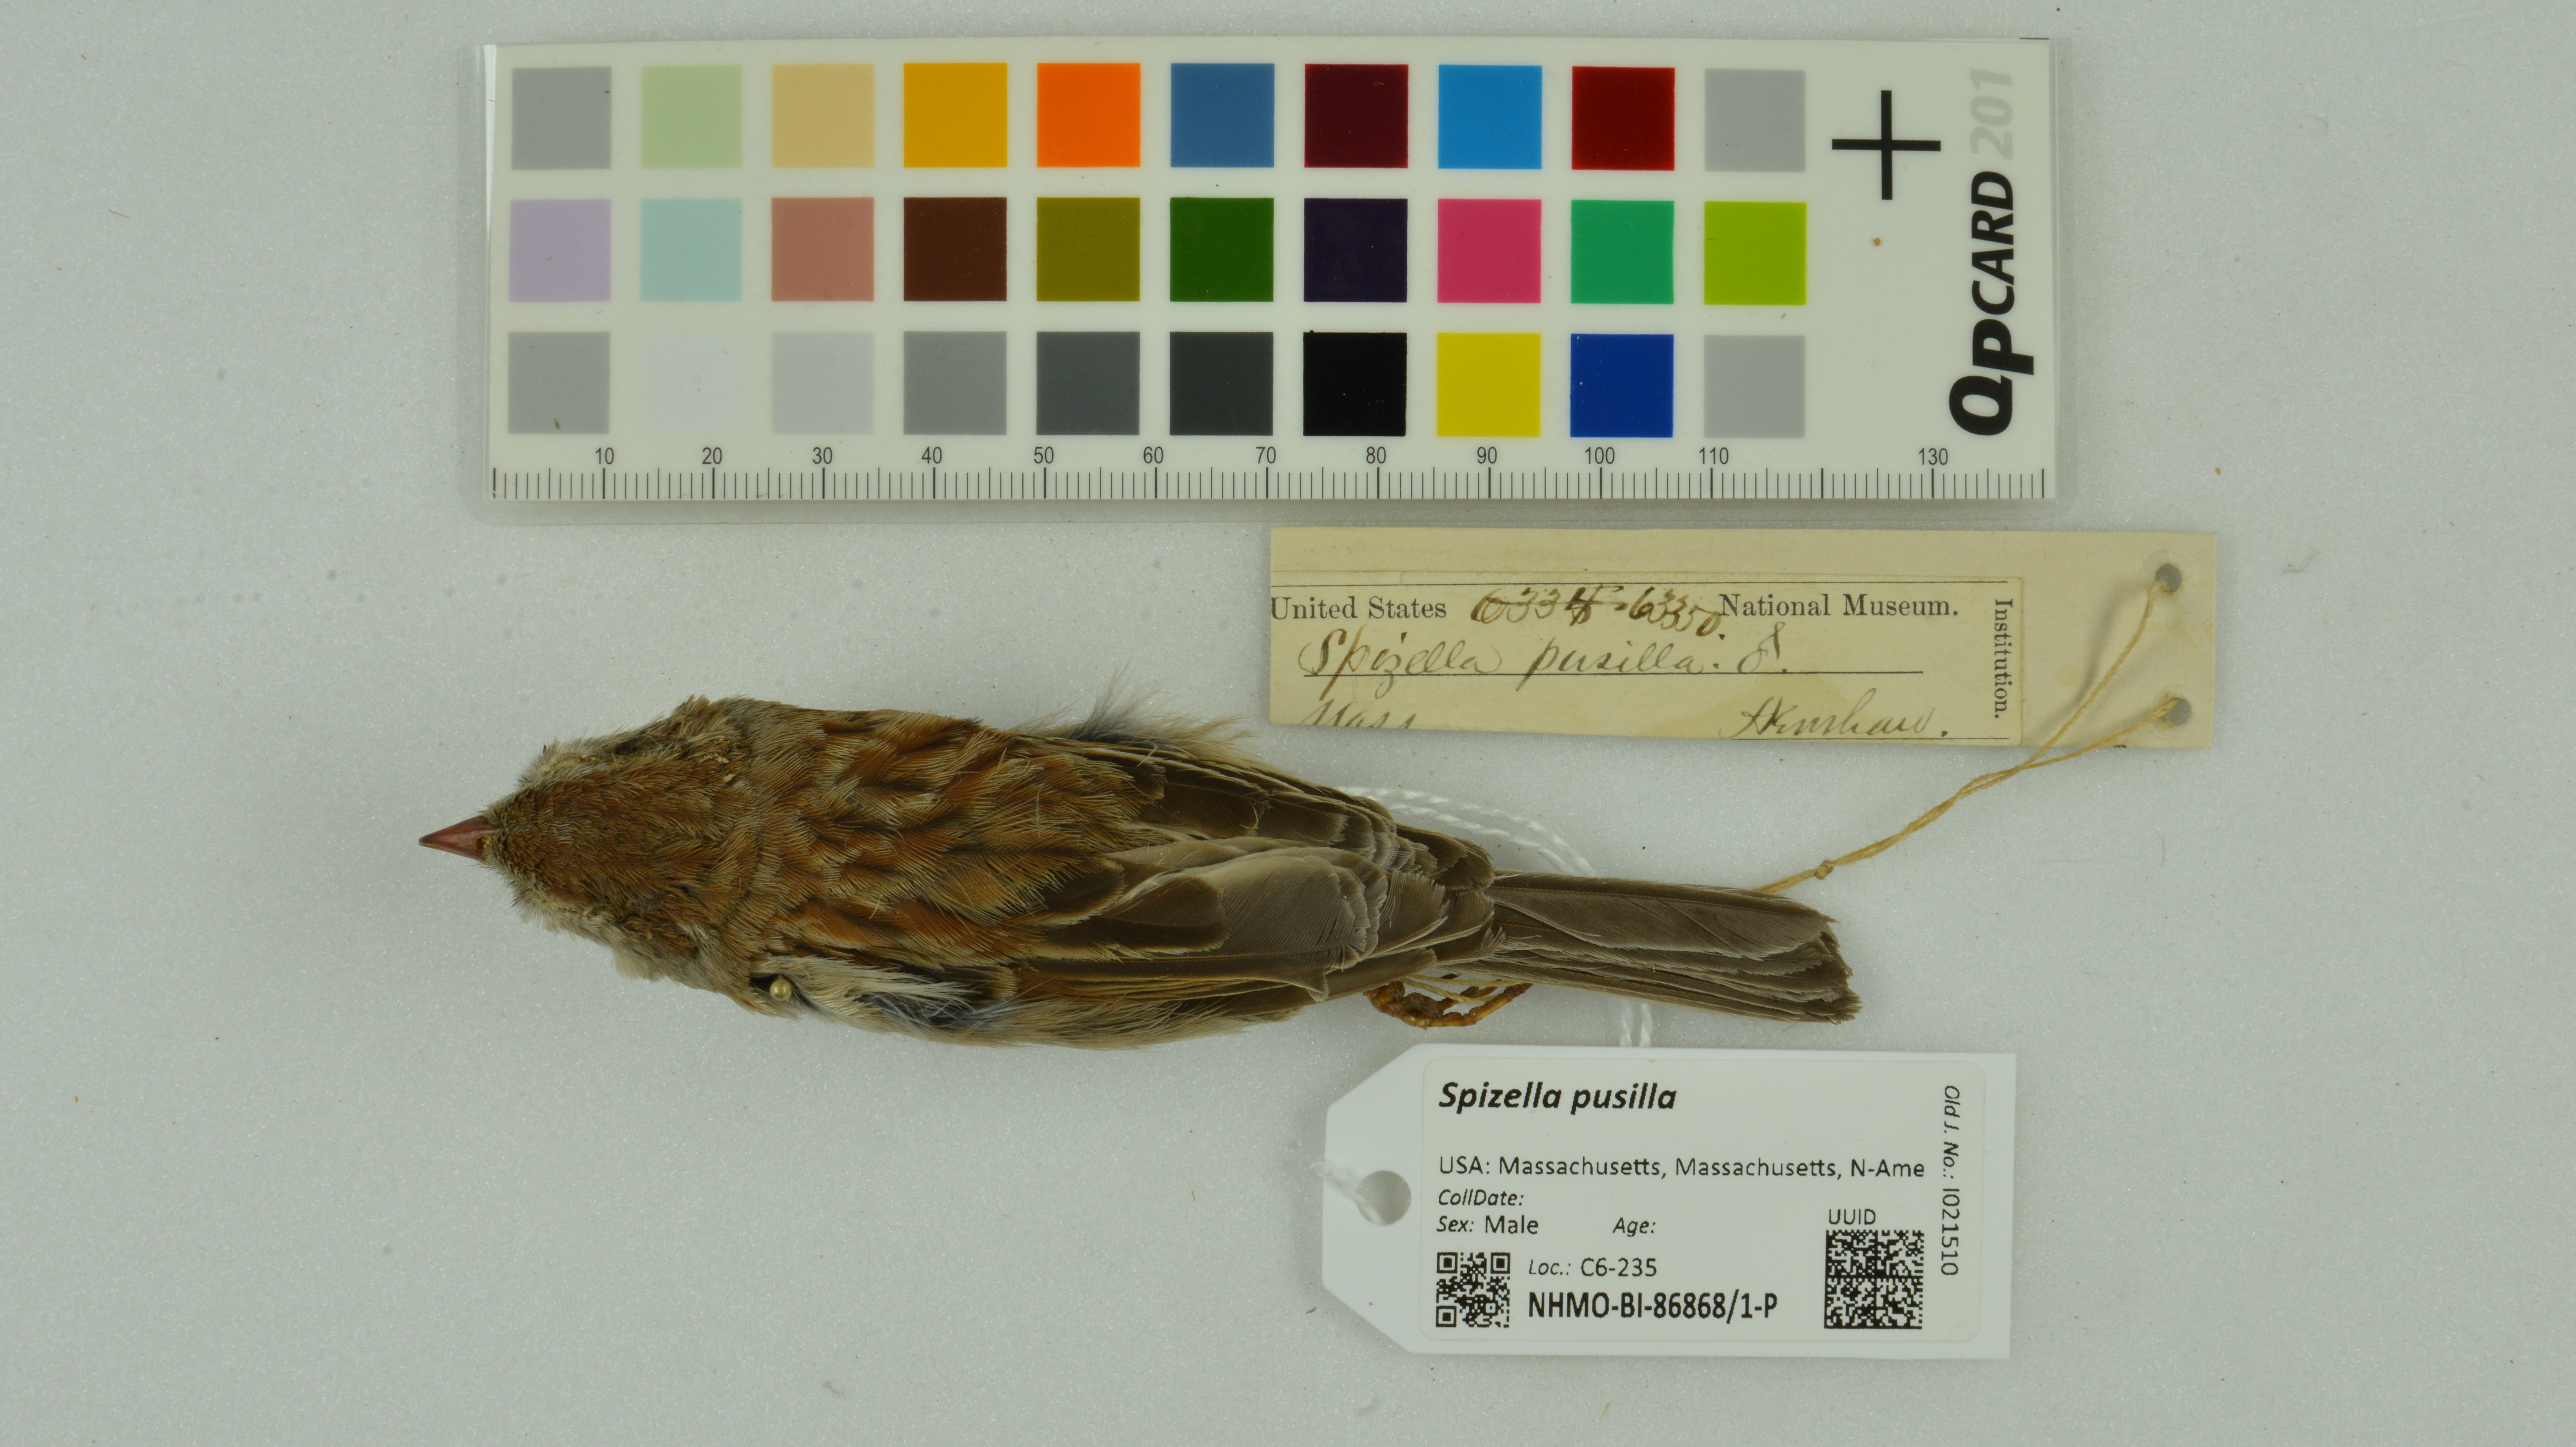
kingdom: Animalia
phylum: Chordata
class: Aves
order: Passeriformes
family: Passerellidae
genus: Spizella
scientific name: Spizella pusilla
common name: Field sparrow
